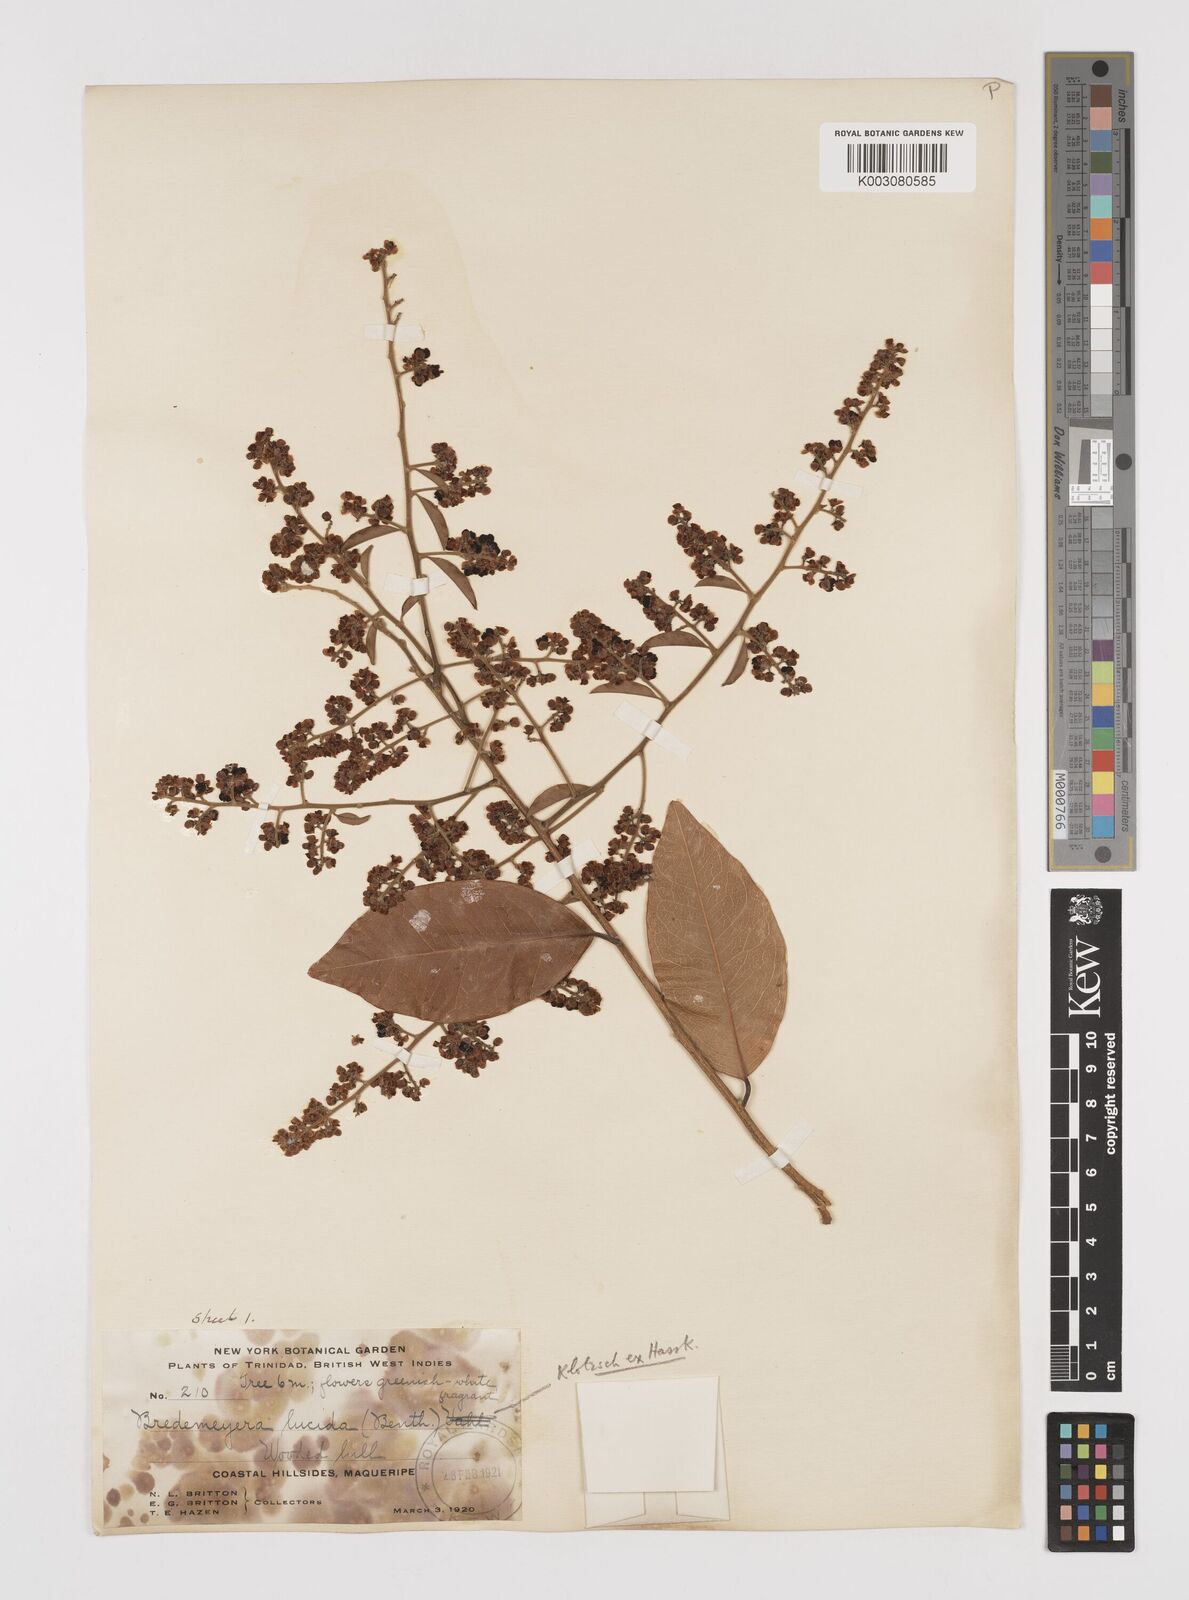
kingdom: Plantae
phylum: Tracheophyta
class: Magnoliopsida
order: Fabales
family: Polygalaceae
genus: Bredemeyera
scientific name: Bredemeyera lucida
